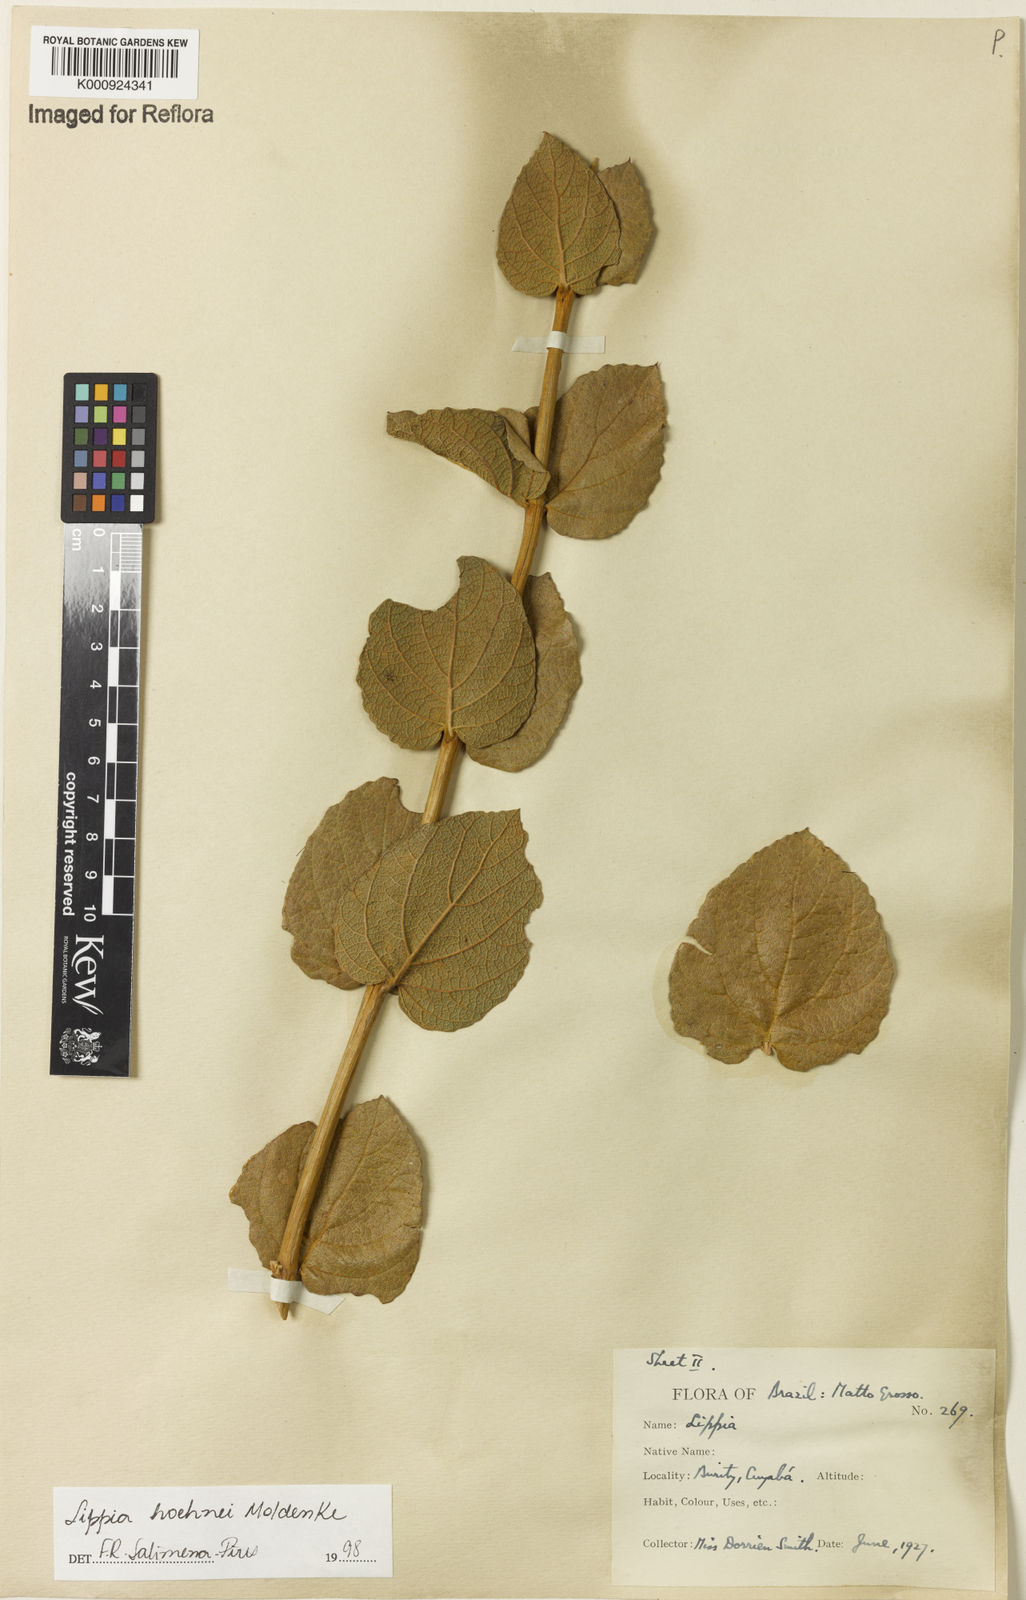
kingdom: Plantae
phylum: Tracheophyta
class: Magnoliopsida
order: Lamiales
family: Verbenaceae
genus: Lippia
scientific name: Lippia hoehnei
